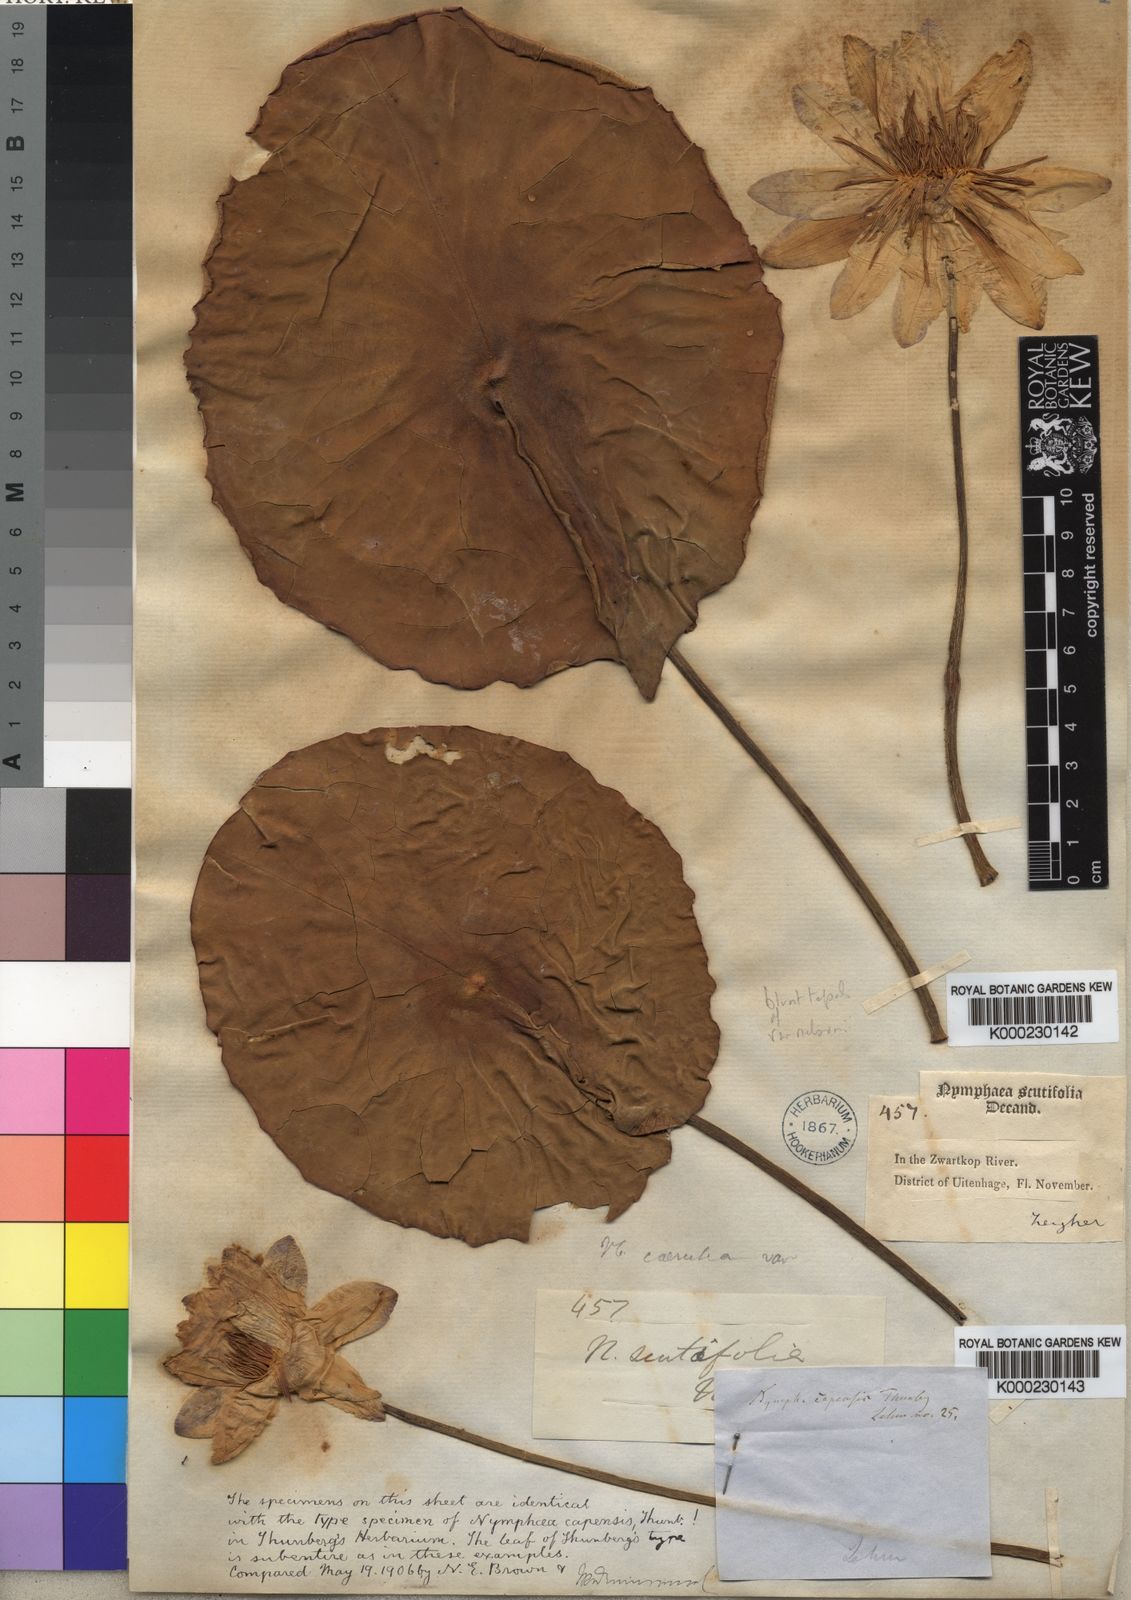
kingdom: Plantae
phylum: Tracheophyta
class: Magnoliopsida
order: Nymphaeales
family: Nymphaeaceae
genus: Nymphaea
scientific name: Nymphaea nouchali
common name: Blue lotus
